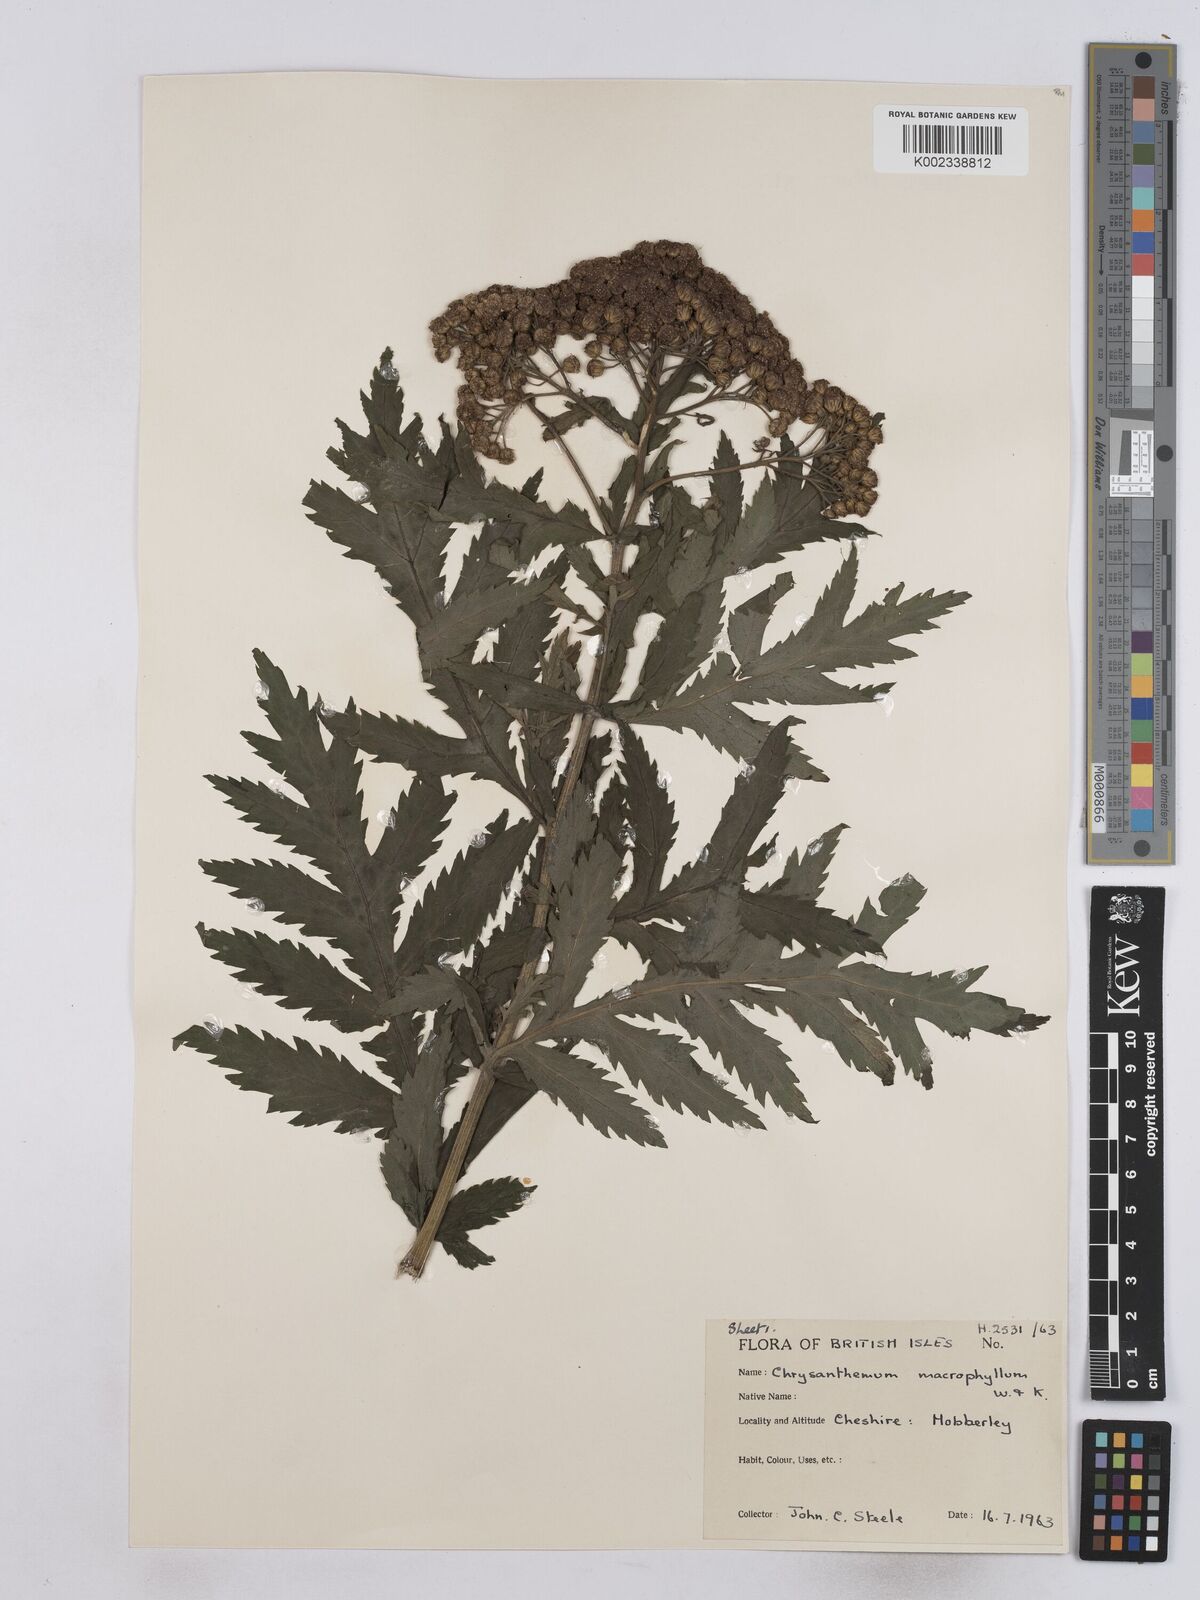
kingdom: Plantae
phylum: Tracheophyta
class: Magnoliopsida
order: Asterales
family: Asteraceae
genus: Tanacetum
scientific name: Tanacetum macrophyllum
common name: Rayed tansy
